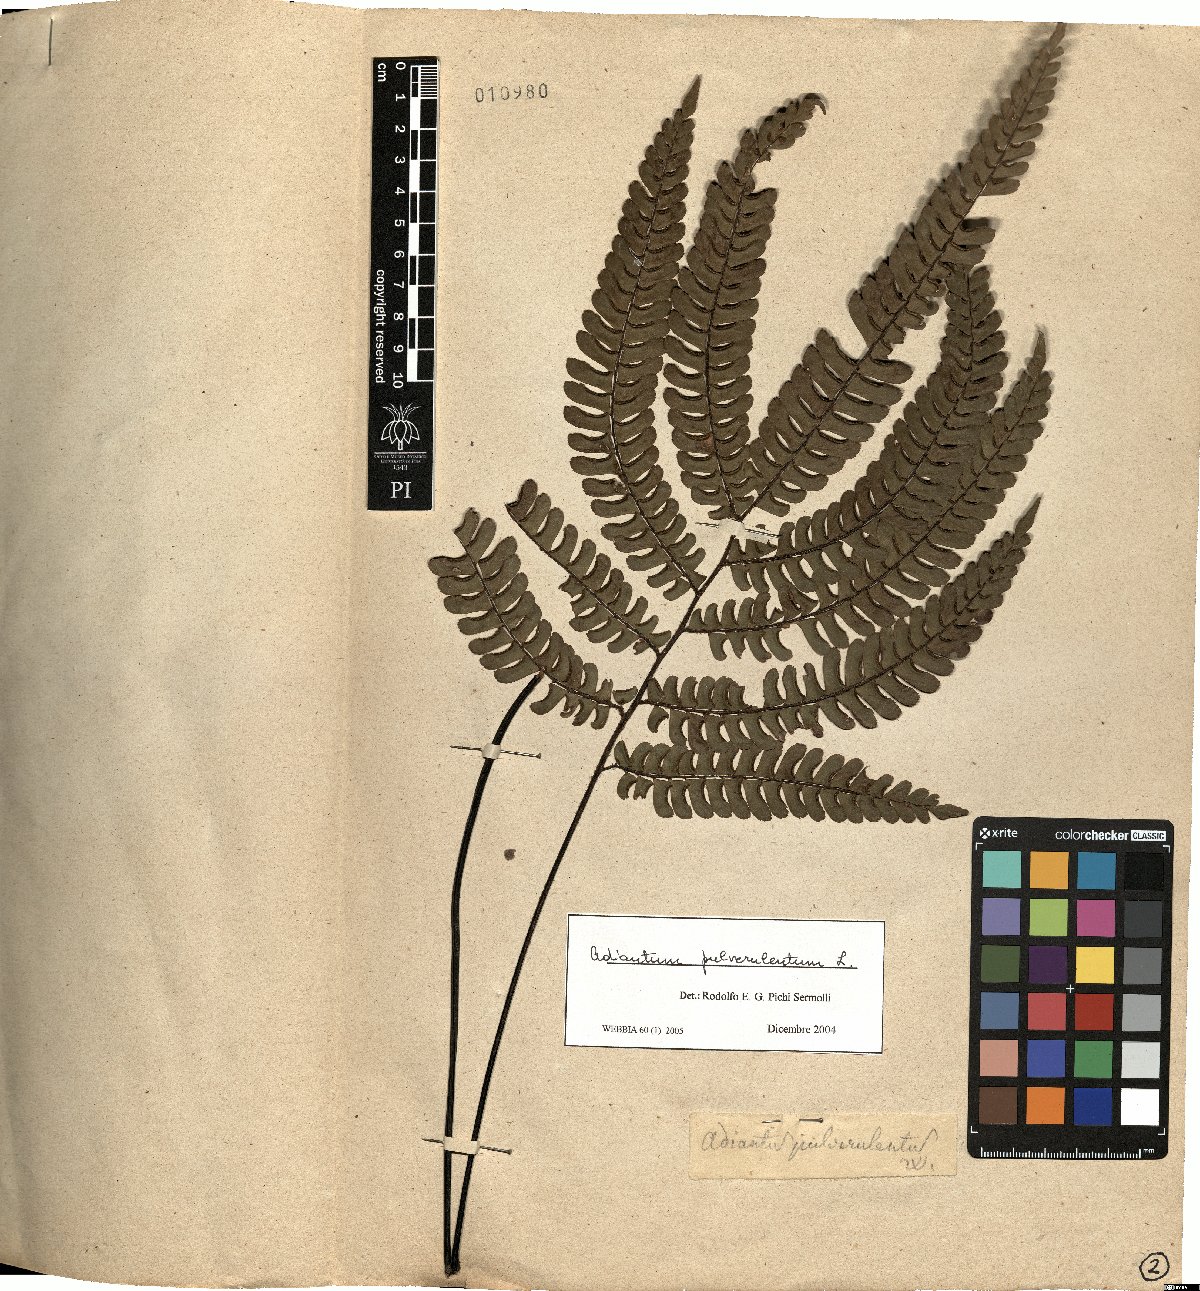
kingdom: Plantae
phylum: Tracheophyta
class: Polypodiopsida
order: Polypodiales
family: Pteridaceae
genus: Adiantum
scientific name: Adiantum pulverulentum
